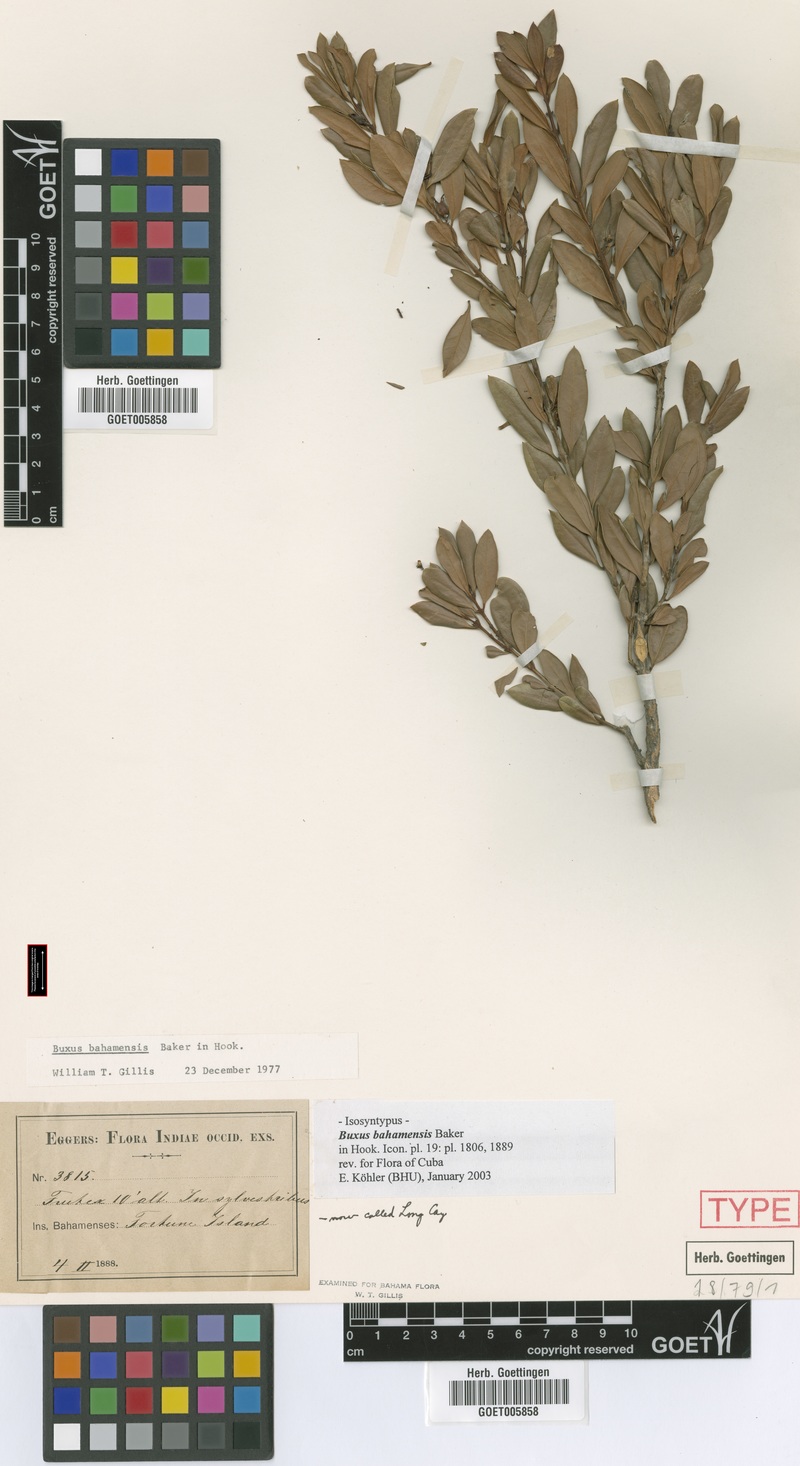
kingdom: Plantae
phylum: Tracheophyta
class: Magnoliopsida
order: Buxales
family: Buxaceae
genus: Buxus
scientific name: Buxus bahamensis
